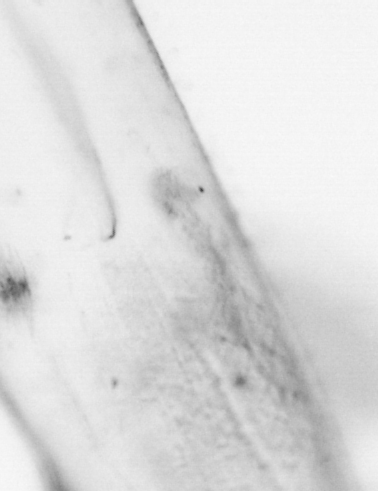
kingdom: Animalia
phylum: Chaetognatha
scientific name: Chaetognatha
